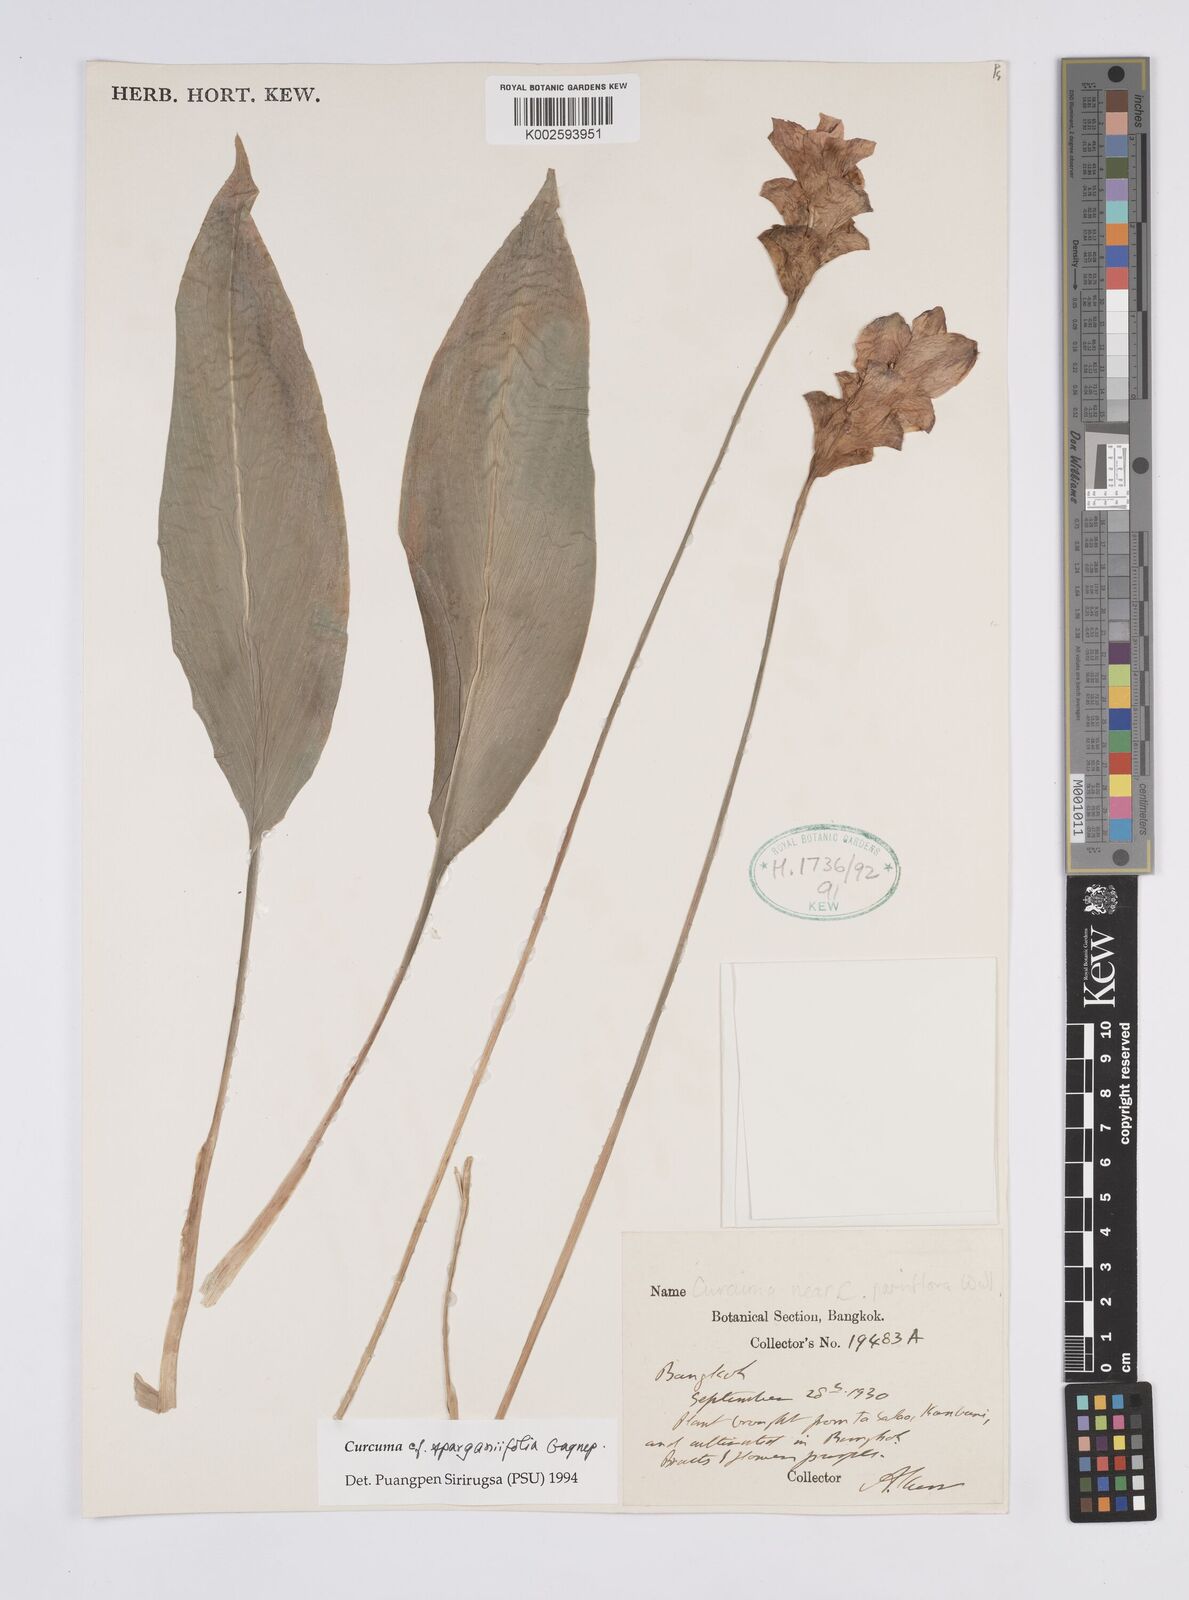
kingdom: Plantae
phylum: Tracheophyta
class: Liliopsida
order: Zingiberales
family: Zingiberaceae
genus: Curcuma
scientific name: Curcuma sparganiifolia
